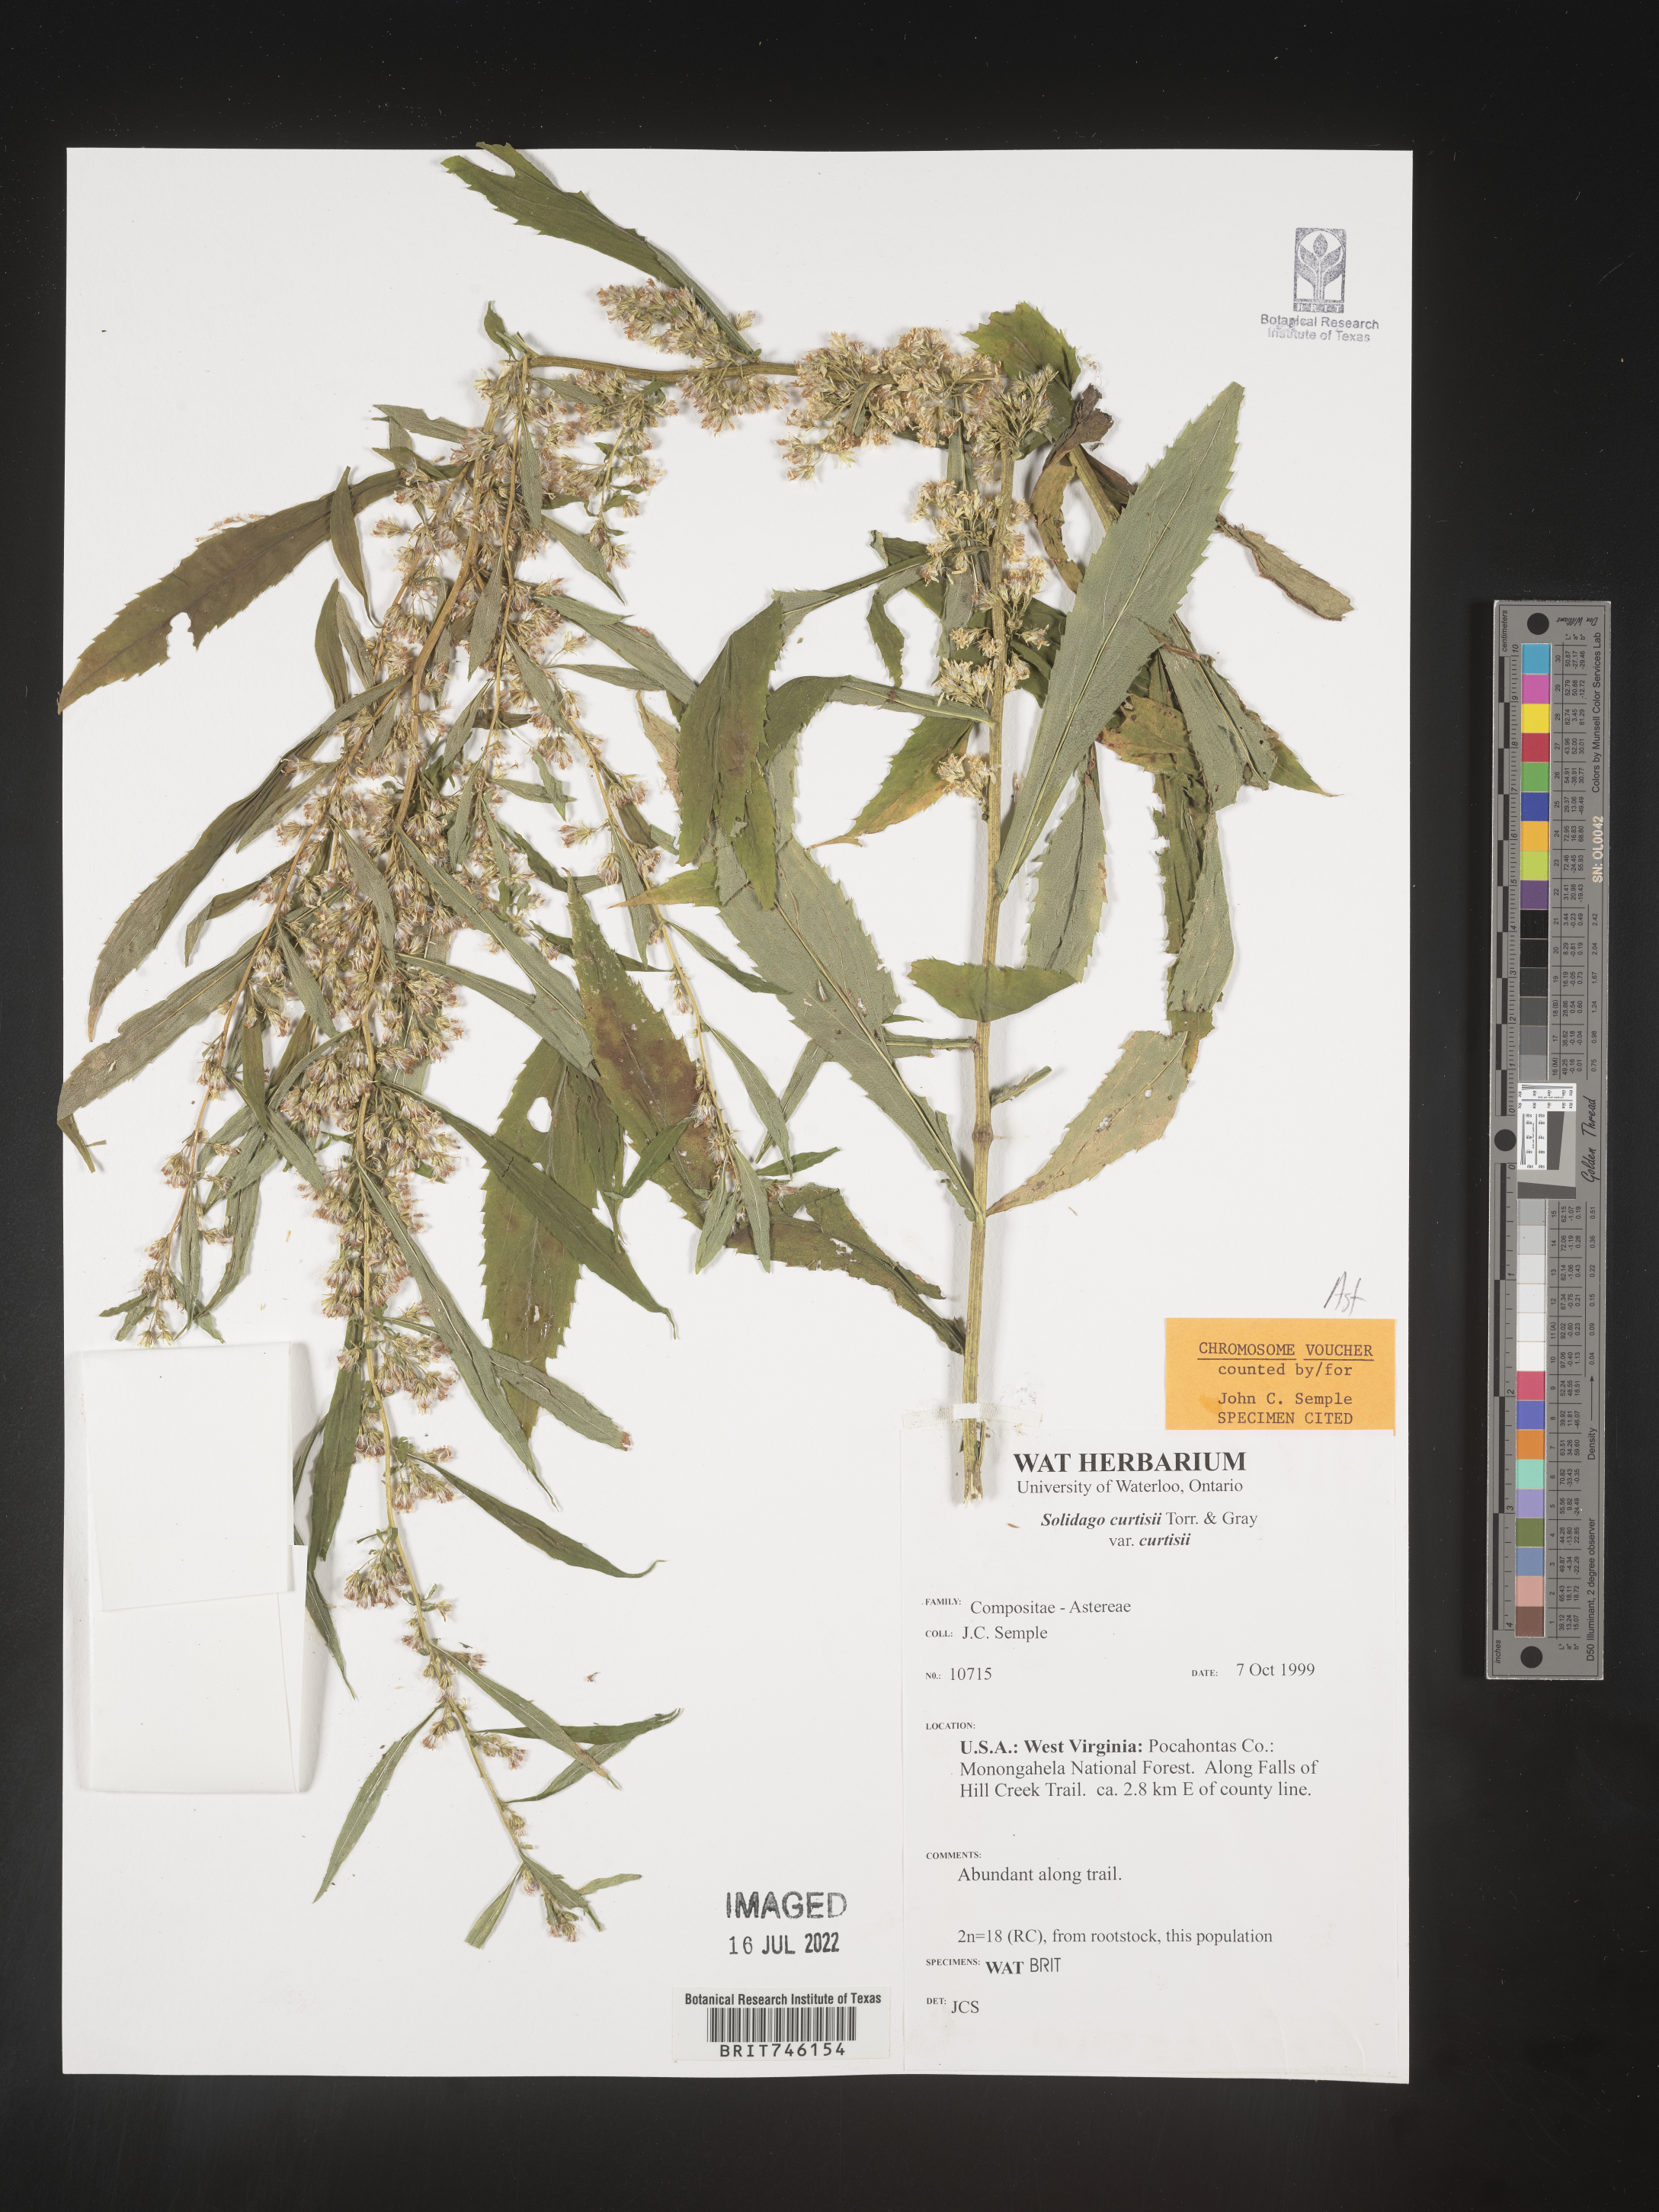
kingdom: Plantae
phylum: Tracheophyta
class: Magnoliopsida
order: Asterales
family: Asteraceae
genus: Solidago
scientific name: Solidago curtisii
